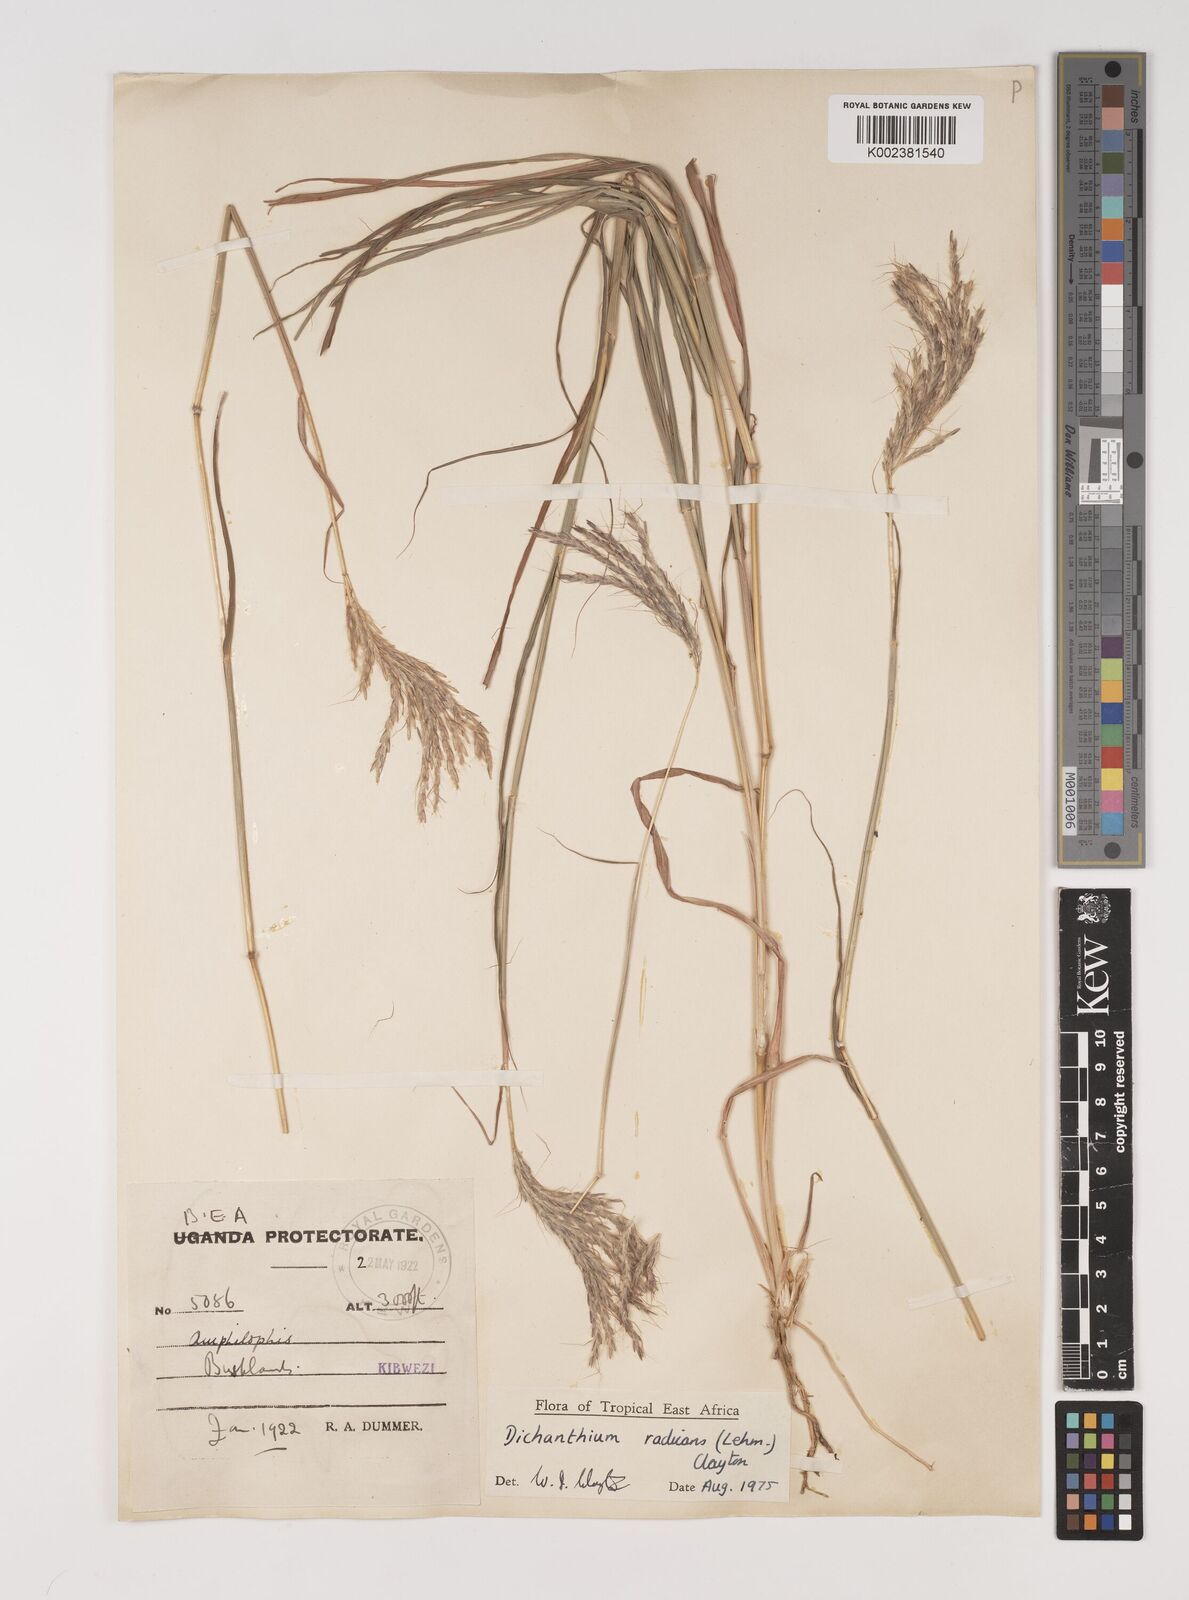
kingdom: Plantae
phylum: Tracheophyta
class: Liliopsida
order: Poales
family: Poaceae
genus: Bothriochloa
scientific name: Bothriochloa radicans
